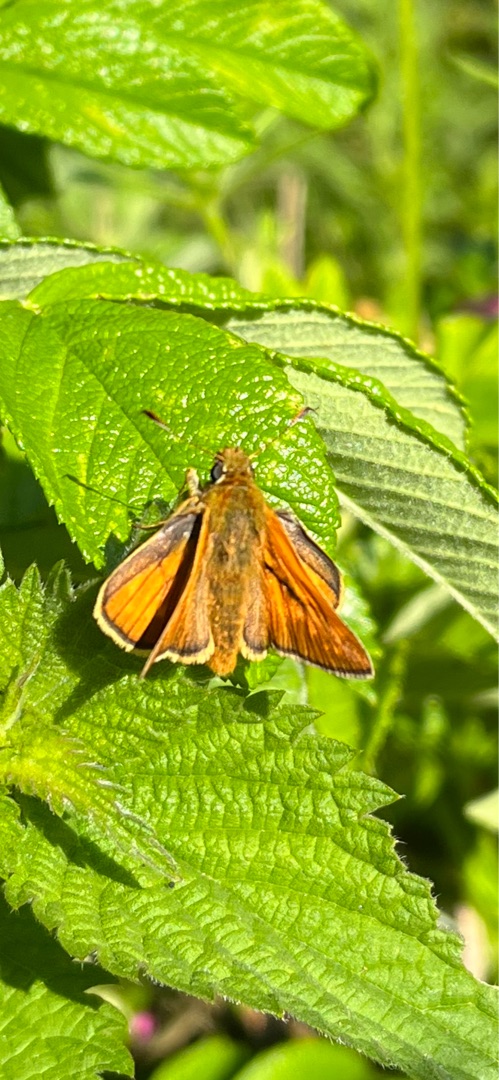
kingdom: Animalia
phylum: Arthropoda
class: Insecta
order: Lepidoptera
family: Hesperiidae
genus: Ochlodes
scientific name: Ochlodes venata
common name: Stor bredpande
